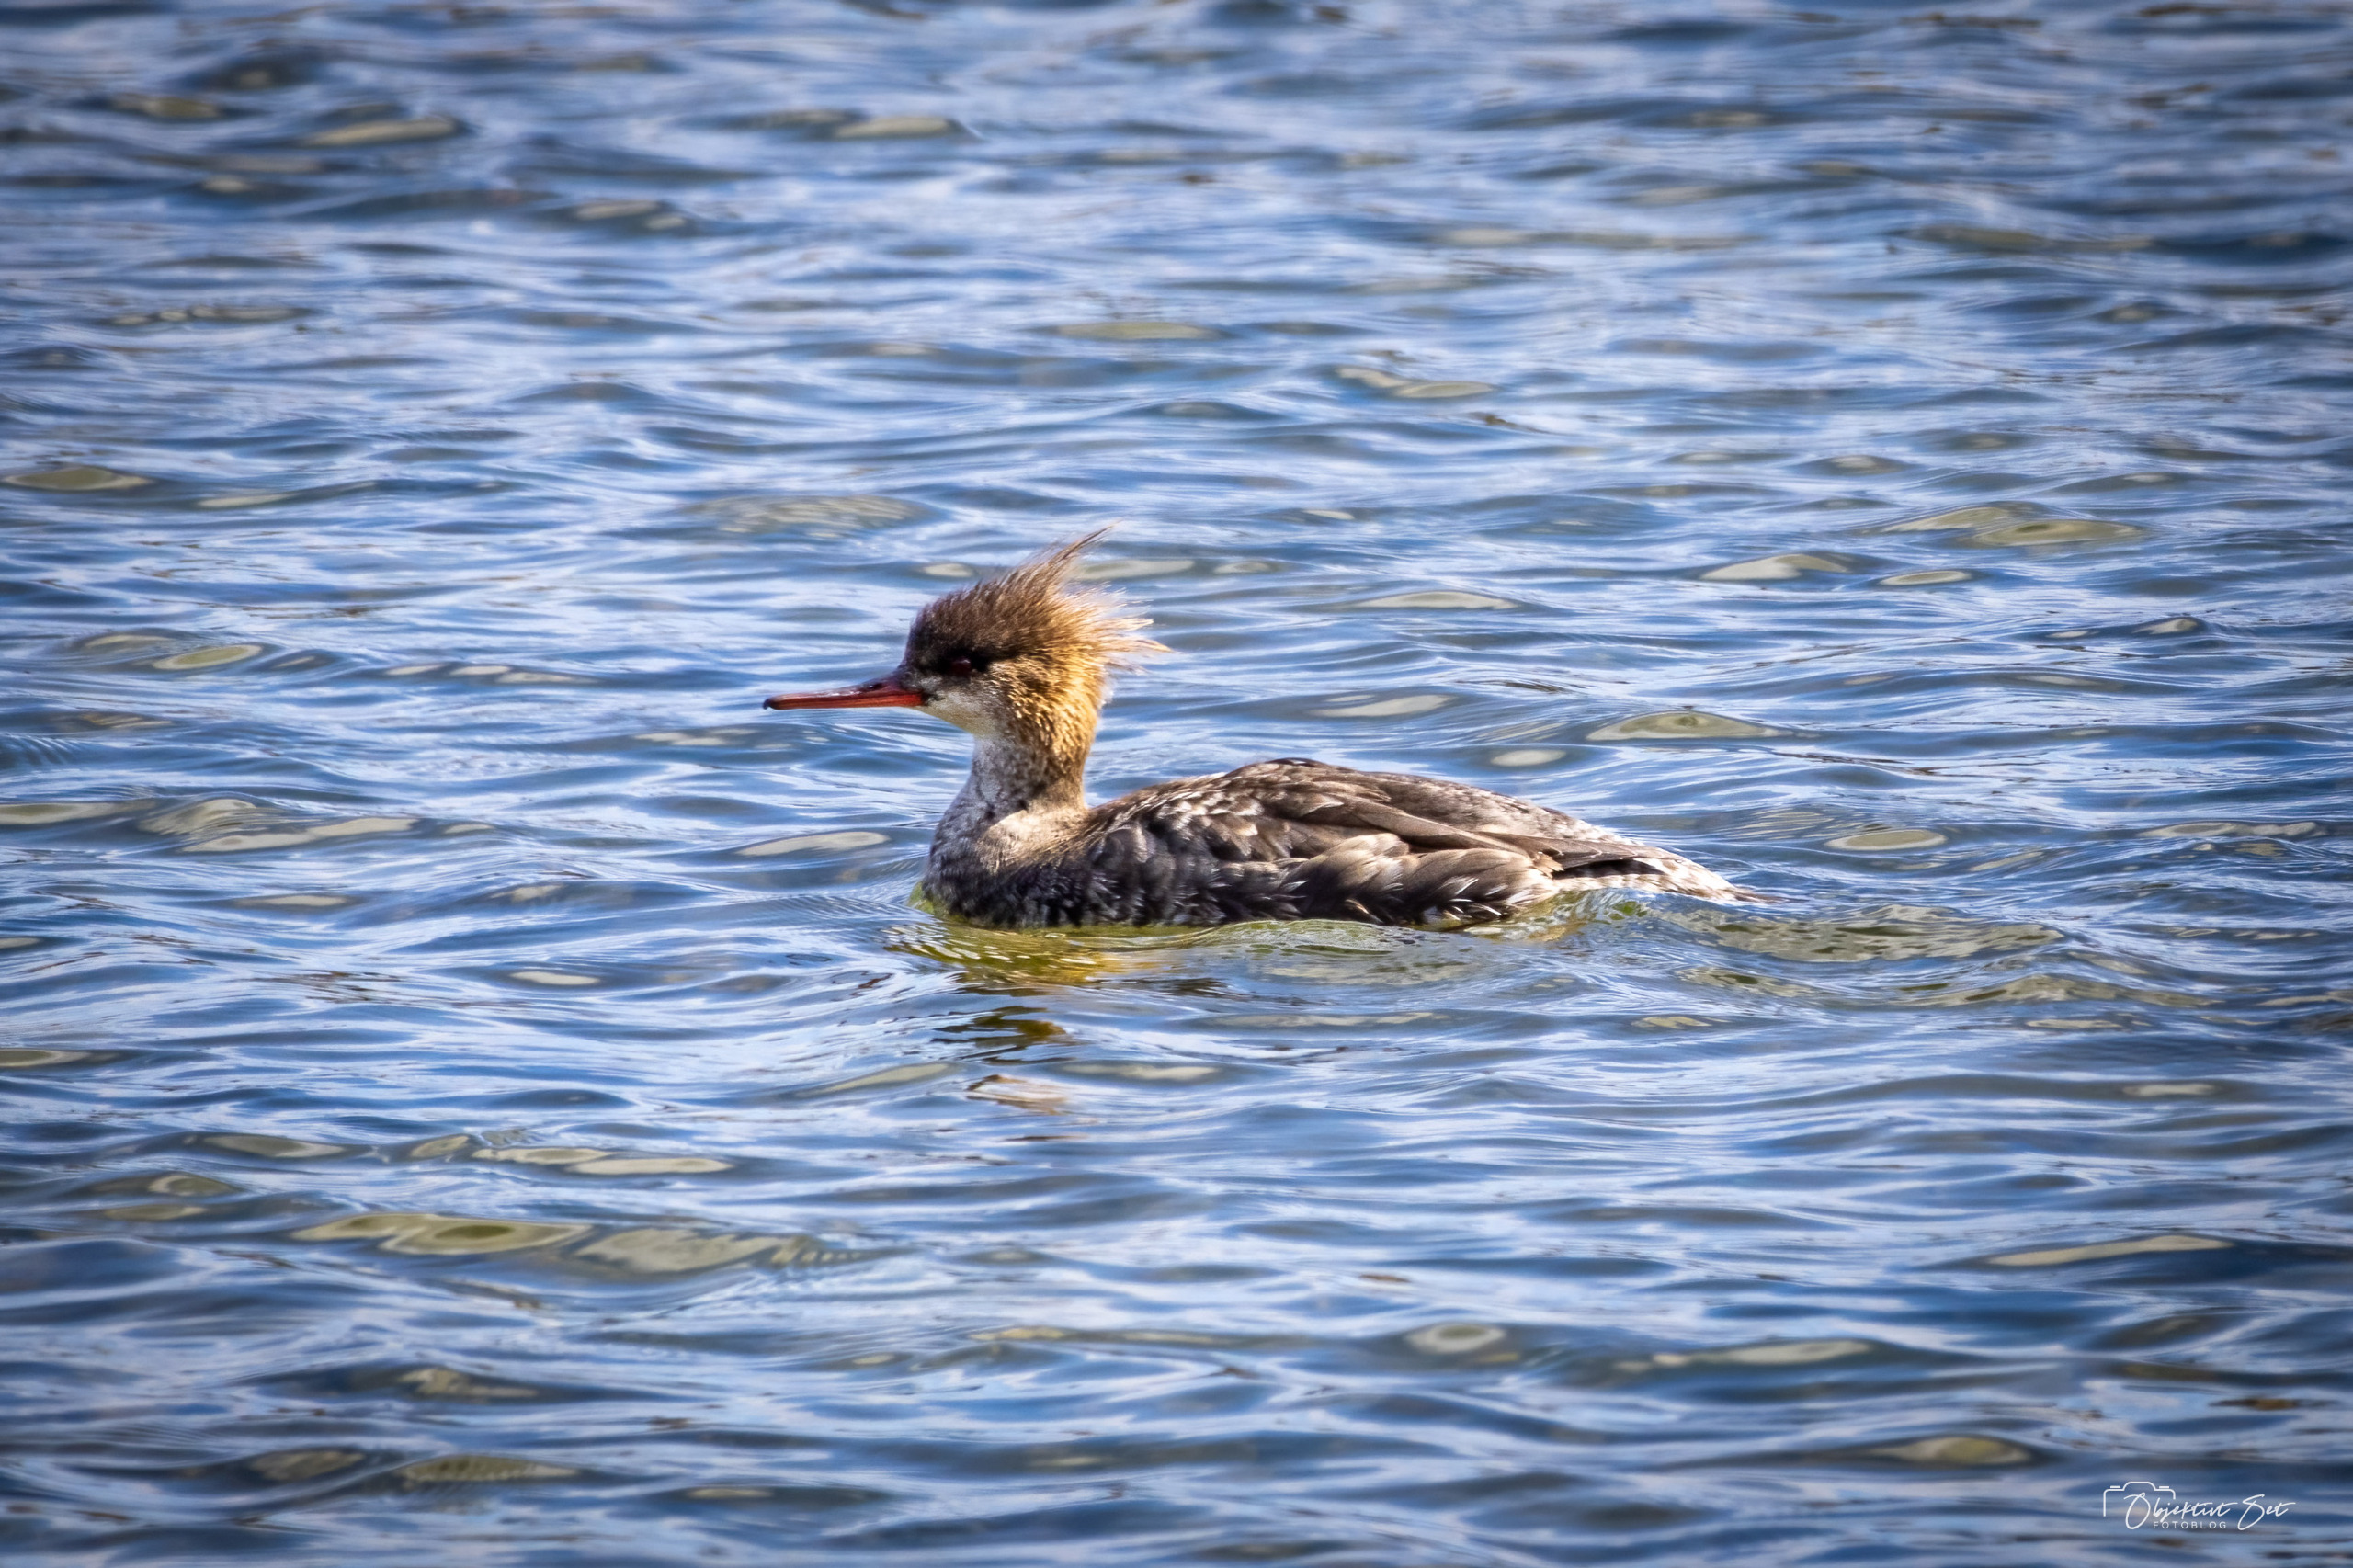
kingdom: Animalia
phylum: Chordata
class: Aves
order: Anseriformes
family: Anatidae
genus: Mergus
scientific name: Mergus serrator
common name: Toppet skallesluger
